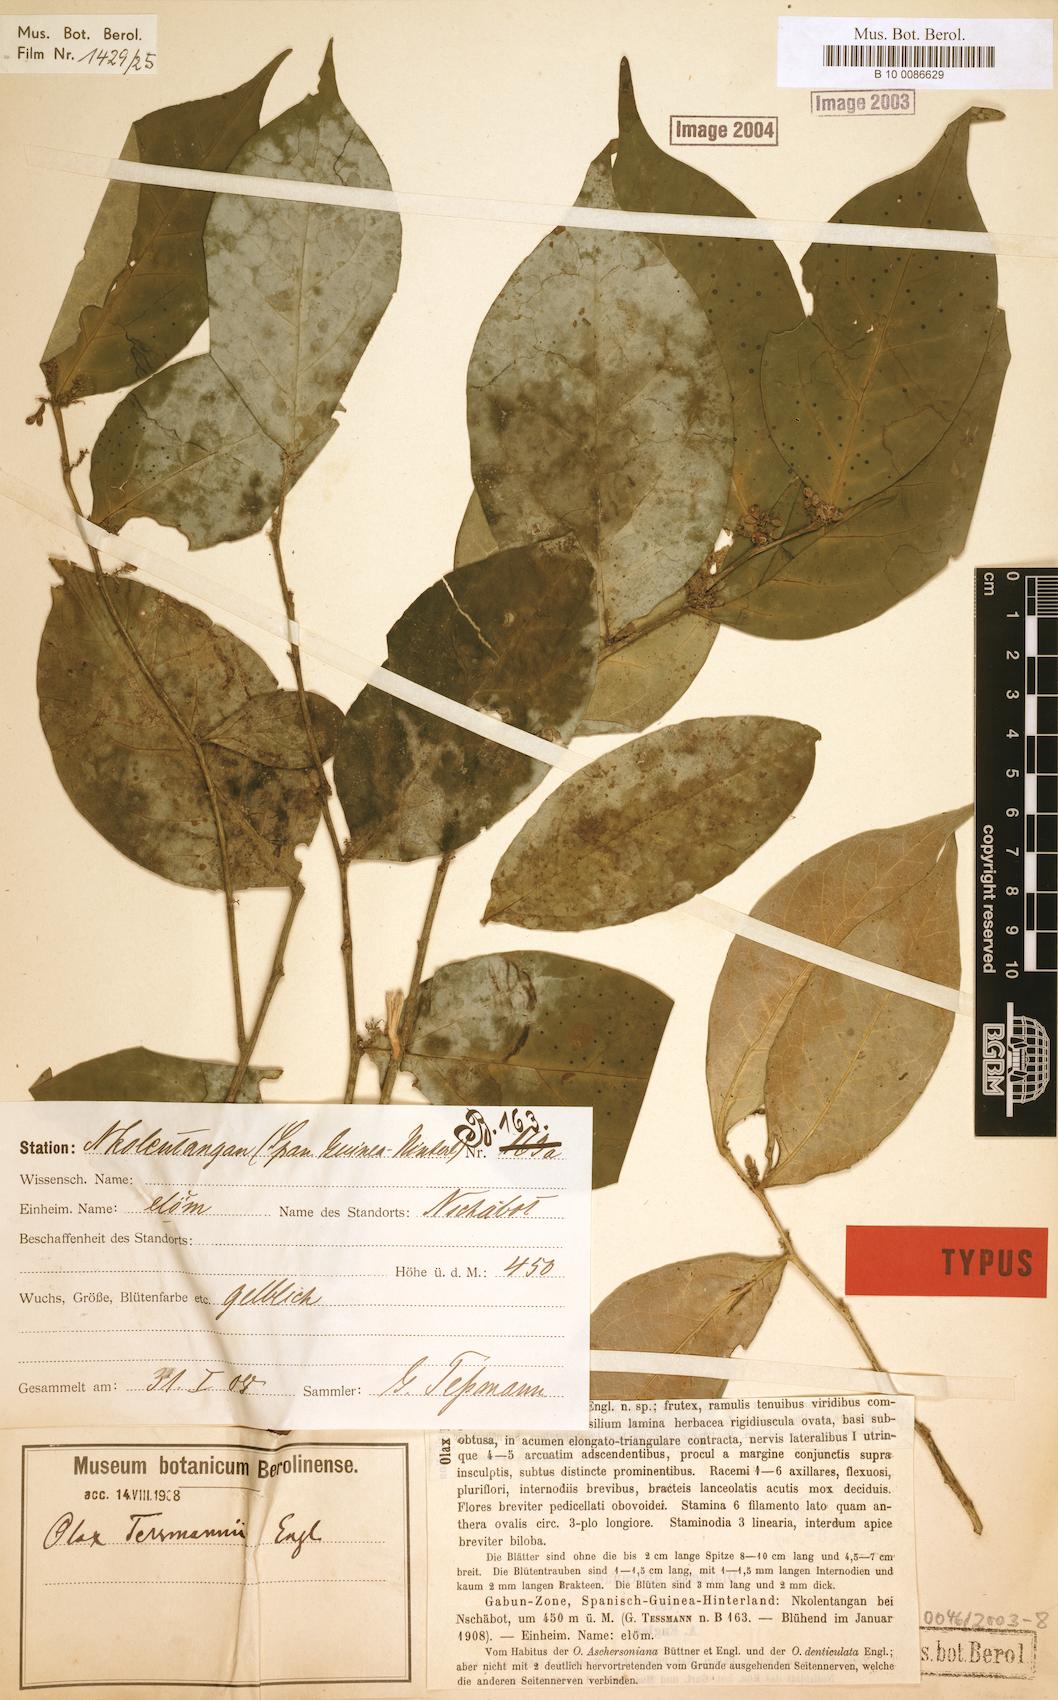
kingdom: Plantae
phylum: Tracheophyta
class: Magnoliopsida
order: Santalales
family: Olacaceae
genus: Olax
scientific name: Olax latifolia
